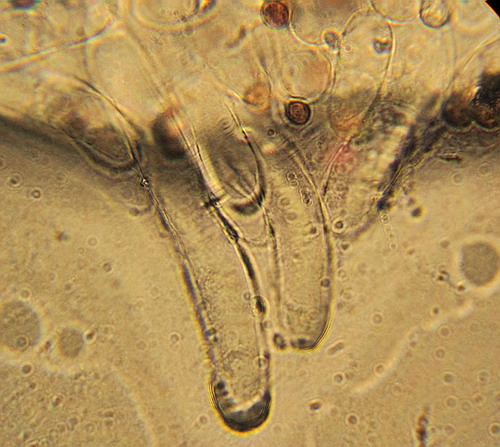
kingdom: Fungi
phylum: Basidiomycota
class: Agaricomycetes
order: Agaricales
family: Psathyrellaceae
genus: Coprinopsis
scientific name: Coprinopsis pseudofriesii
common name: gulfnugget blækhat
